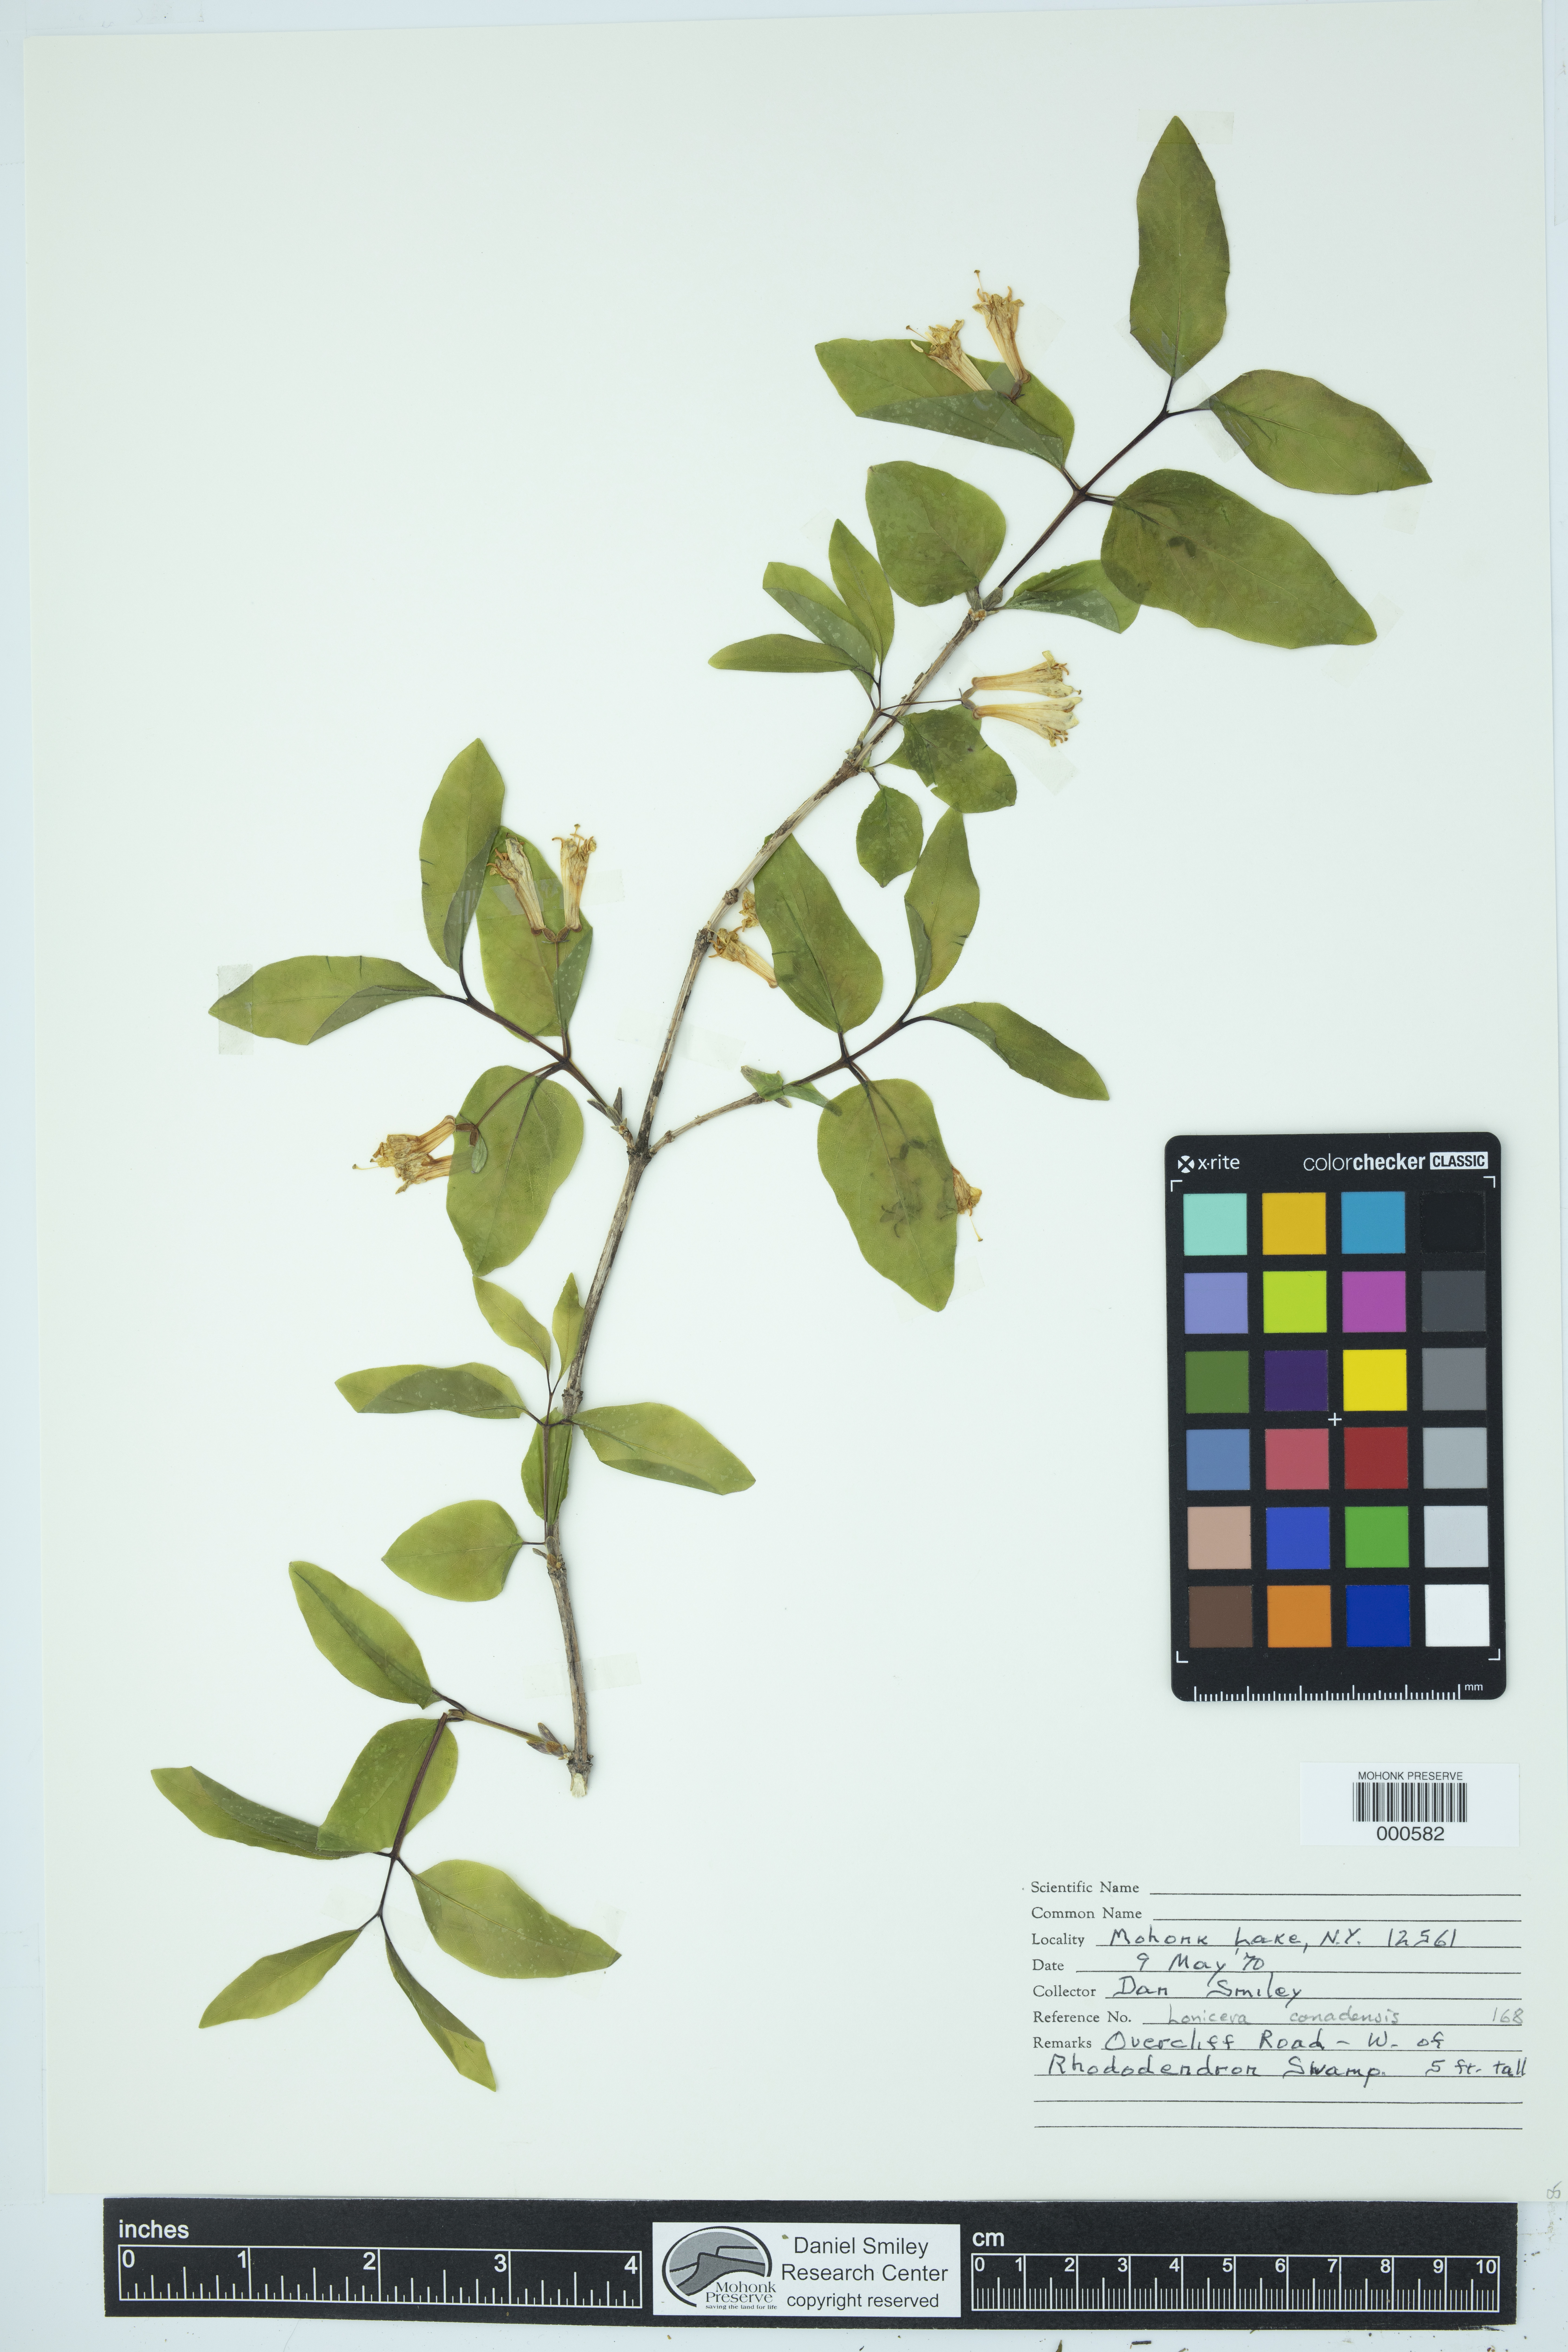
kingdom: Plantae
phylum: Tracheophyta
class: Magnoliopsida
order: Dipsacales
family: Caprifoliaceae
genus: Lonicera
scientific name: Lonicera canadensis
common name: American fly-honeysuckle
